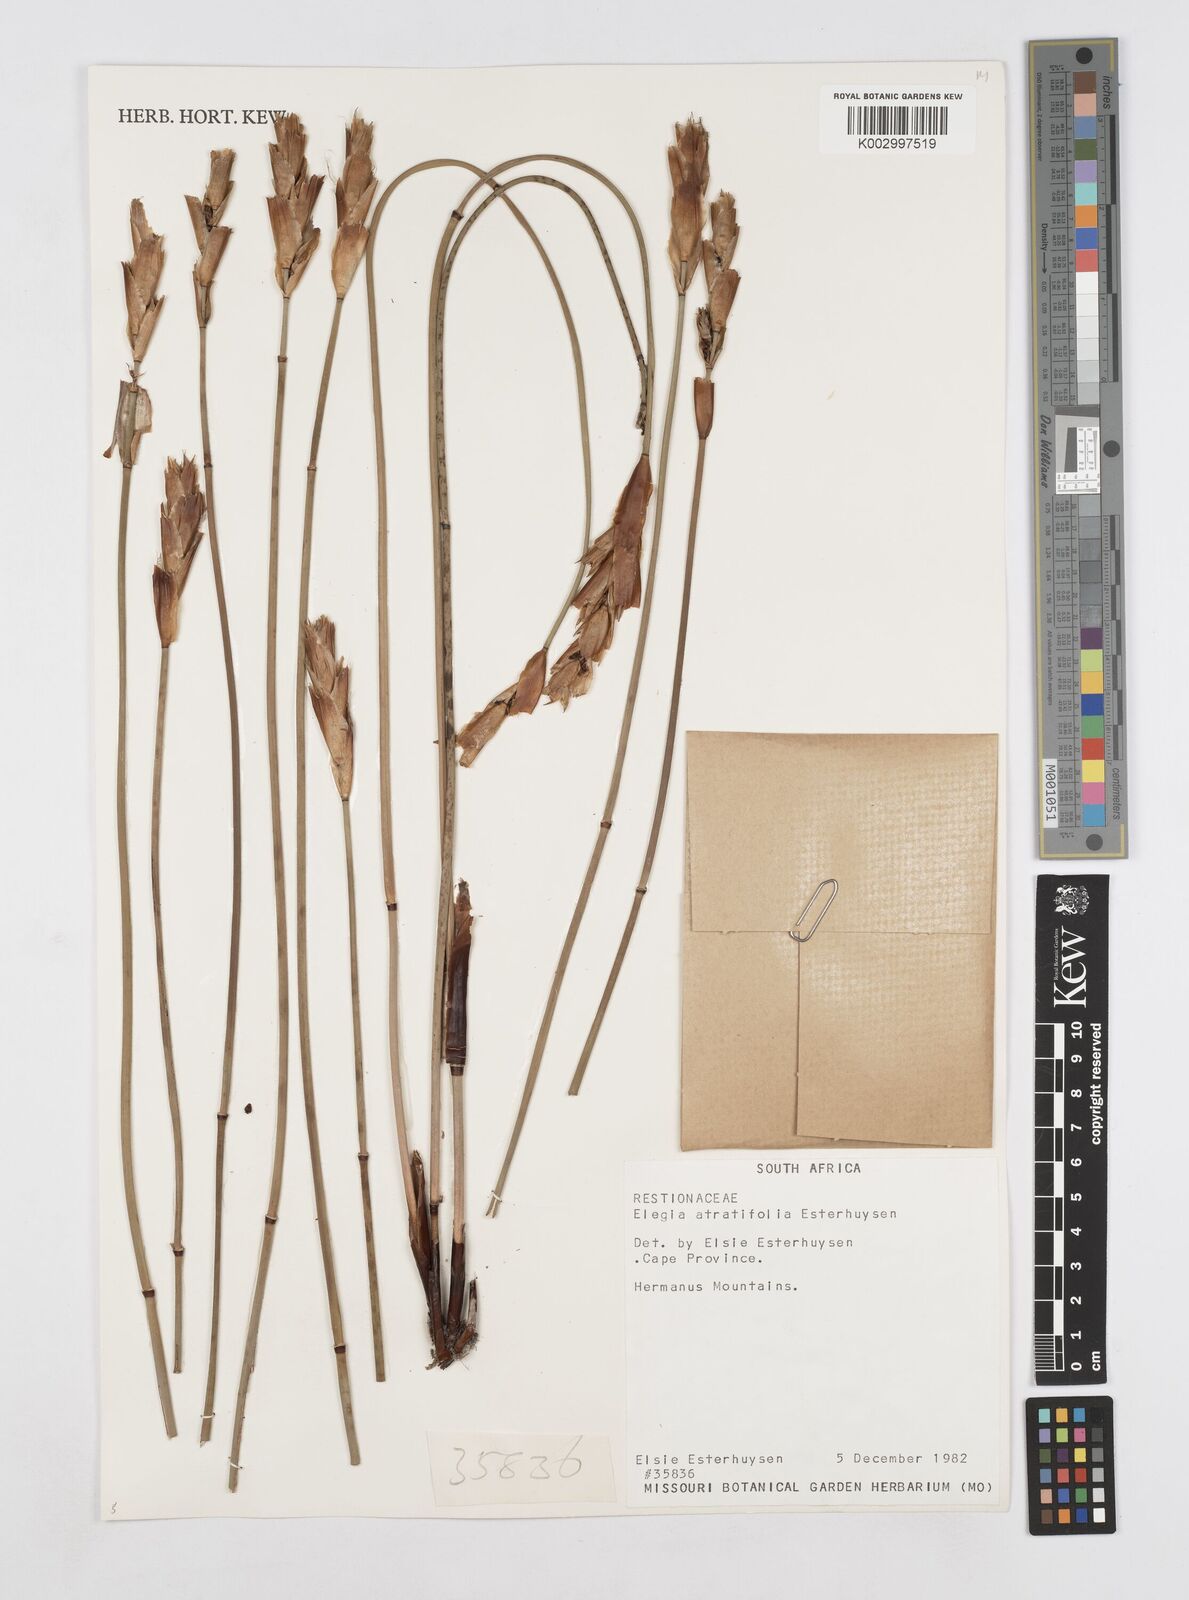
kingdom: Plantae
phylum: Tracheophyta
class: Liliopsida
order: Poales
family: Restionaceae
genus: Elegia
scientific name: Elegia atratiflora
